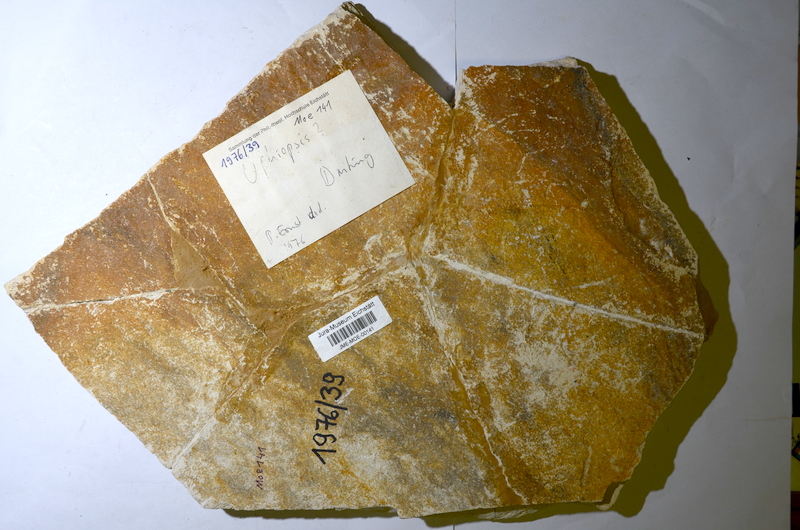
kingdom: Animalia
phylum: Chordata
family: Ankylophoridae
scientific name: Ankylophoridae
